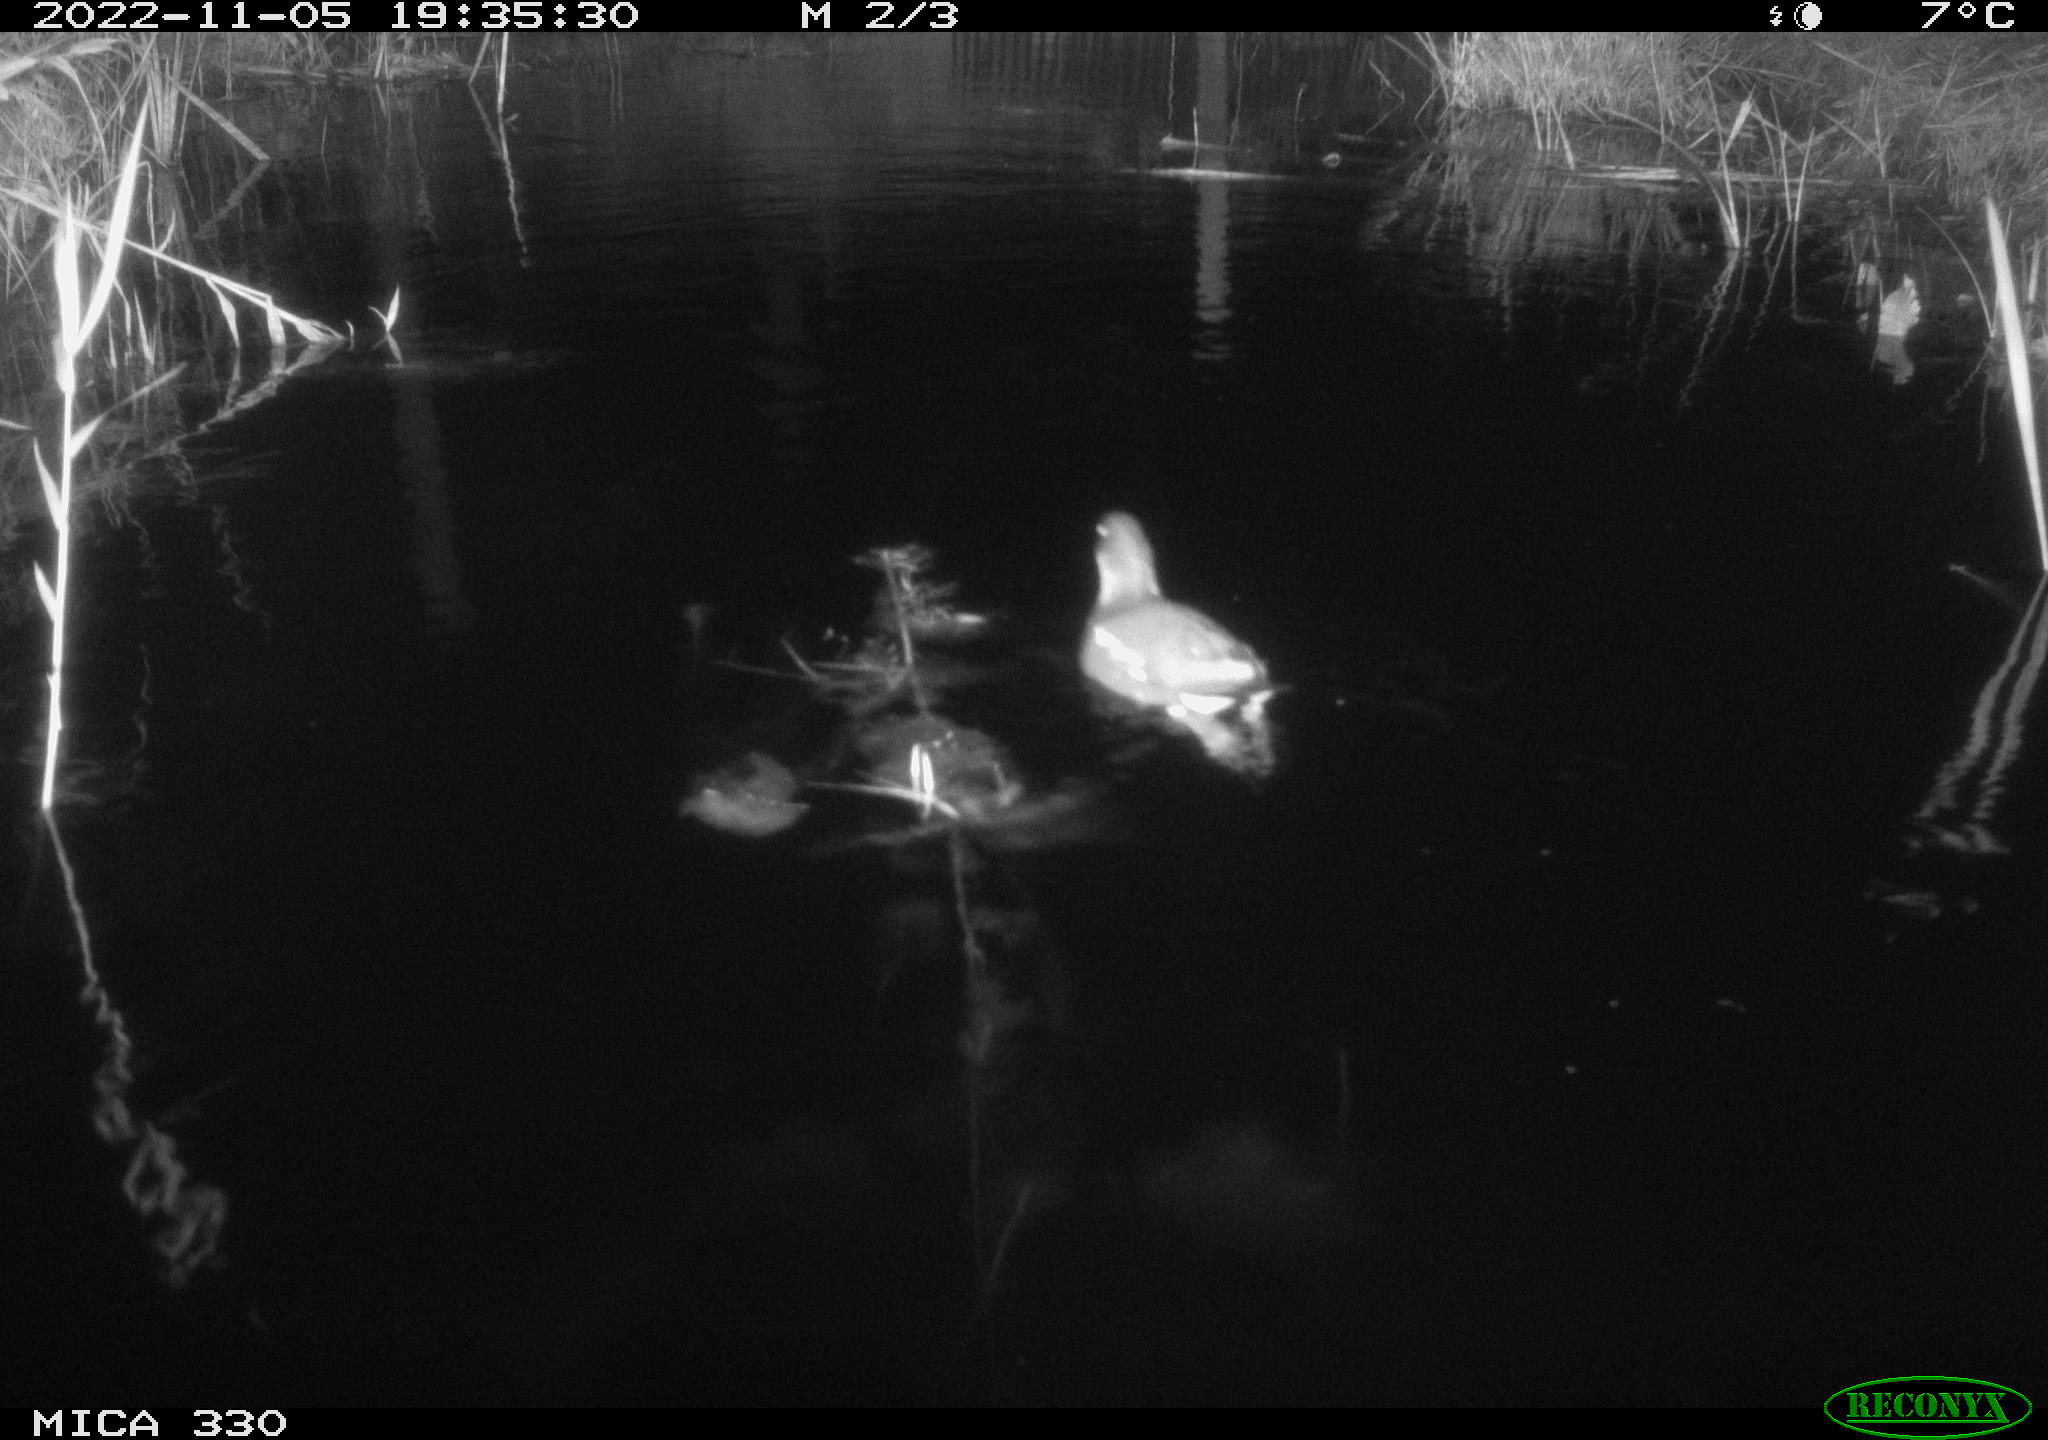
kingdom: Animalia
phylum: Chordata
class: Aves
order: Gruiformes
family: Rallidae
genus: Gallinula
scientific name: Gallinula chloropus
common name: Common moorhen
